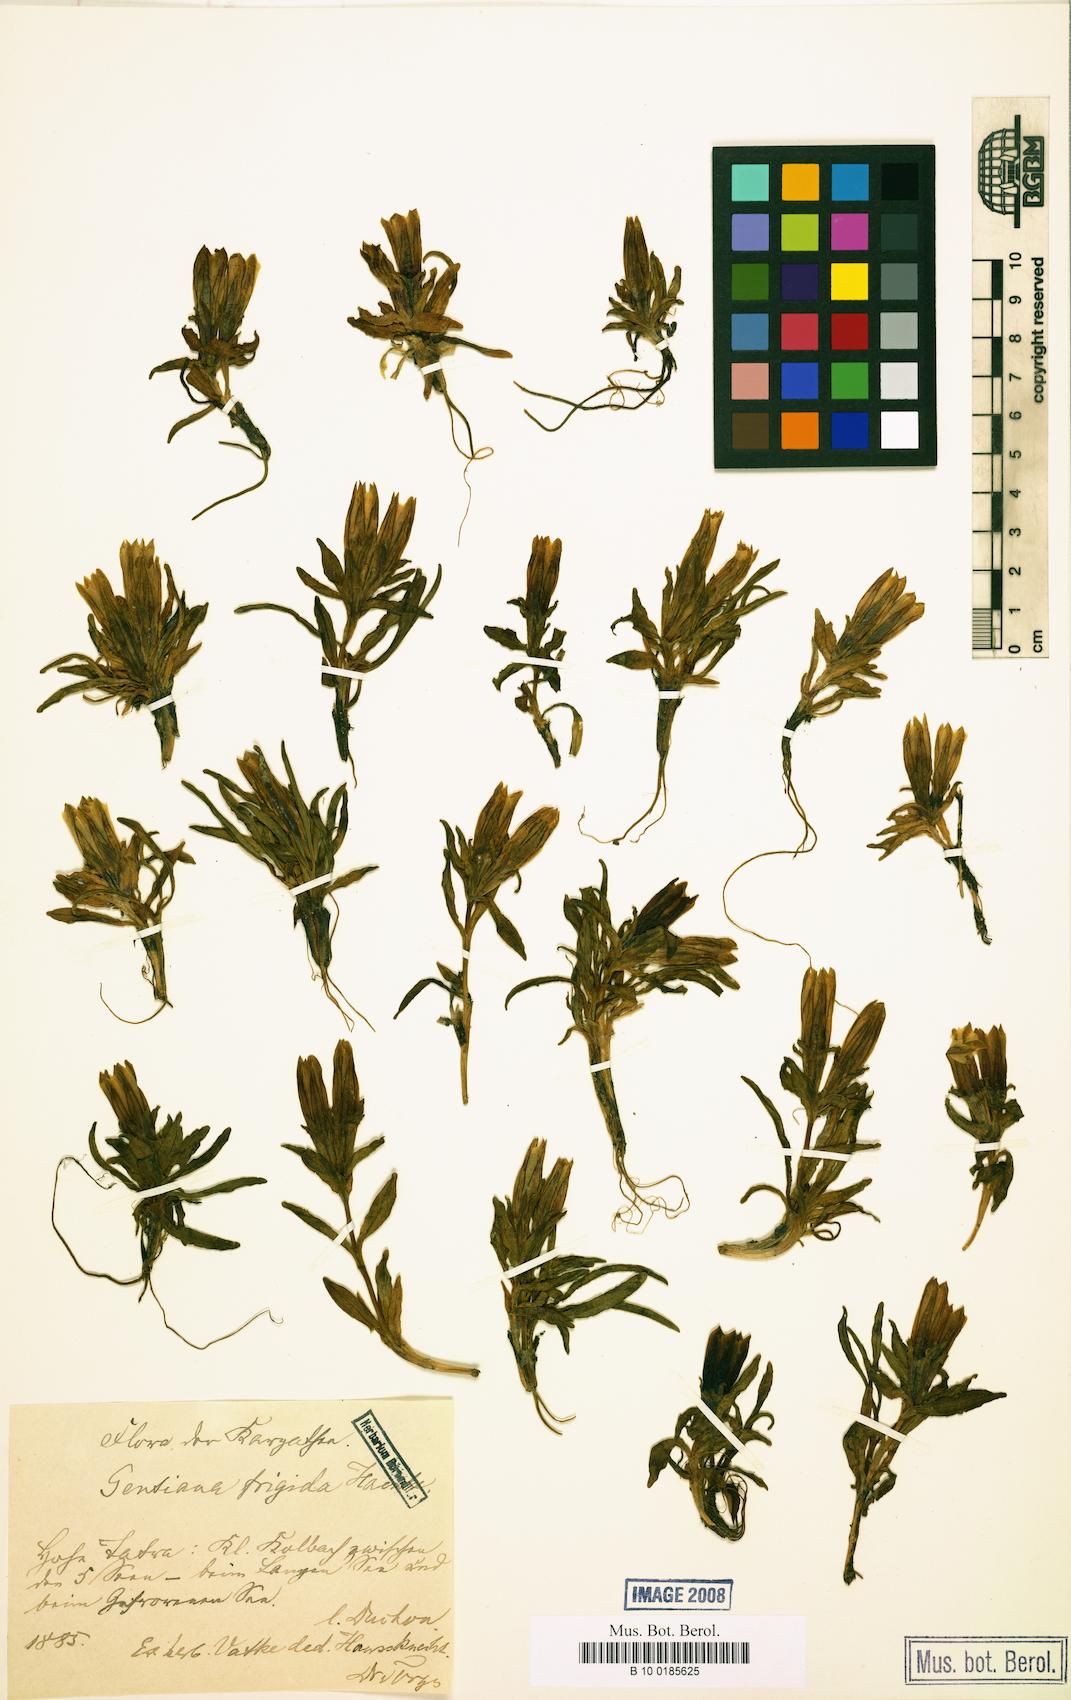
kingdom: Plantae
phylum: Tracheophyta
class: Magnoliopsida
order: Gentianales
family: Gentianaceae
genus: Gentiana
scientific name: Gentiana frigida
